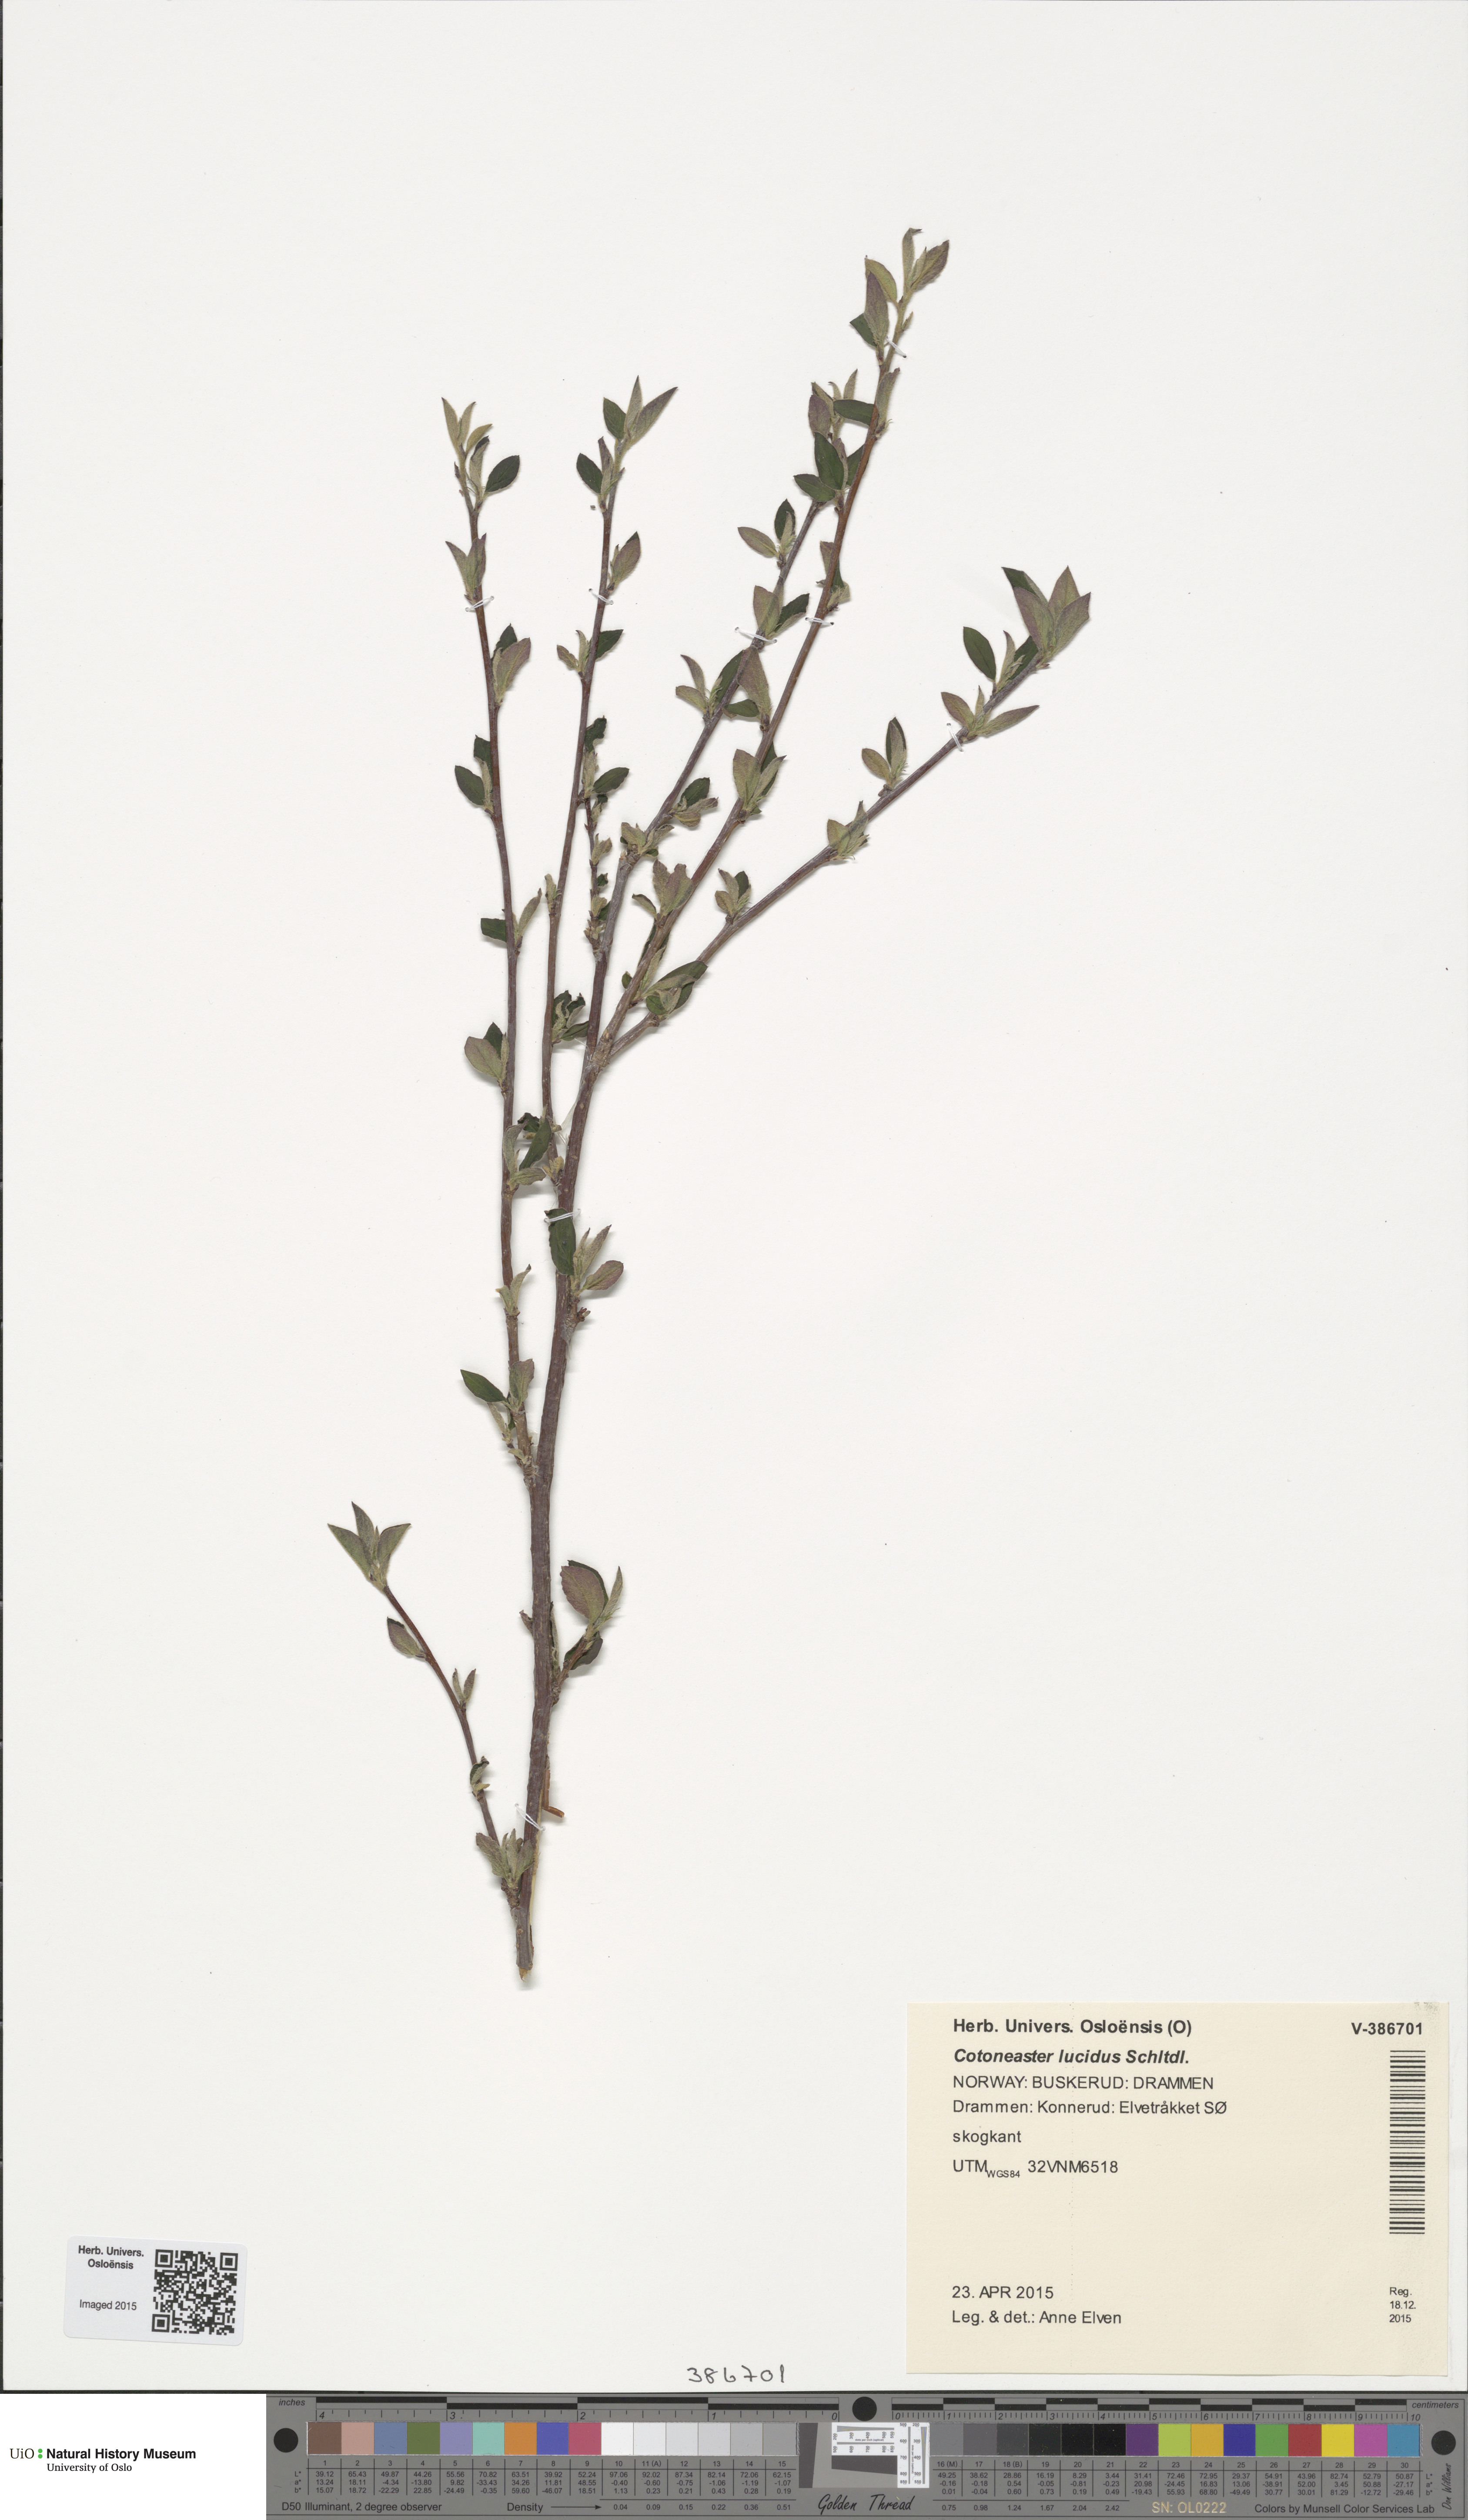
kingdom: Plantae
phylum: Tracheophyta
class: Magnoliopsida
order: Rosales
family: Rosaceae
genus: Cotoneaster
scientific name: Cotoneaster acutifolius
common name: Peking cotoneaster
